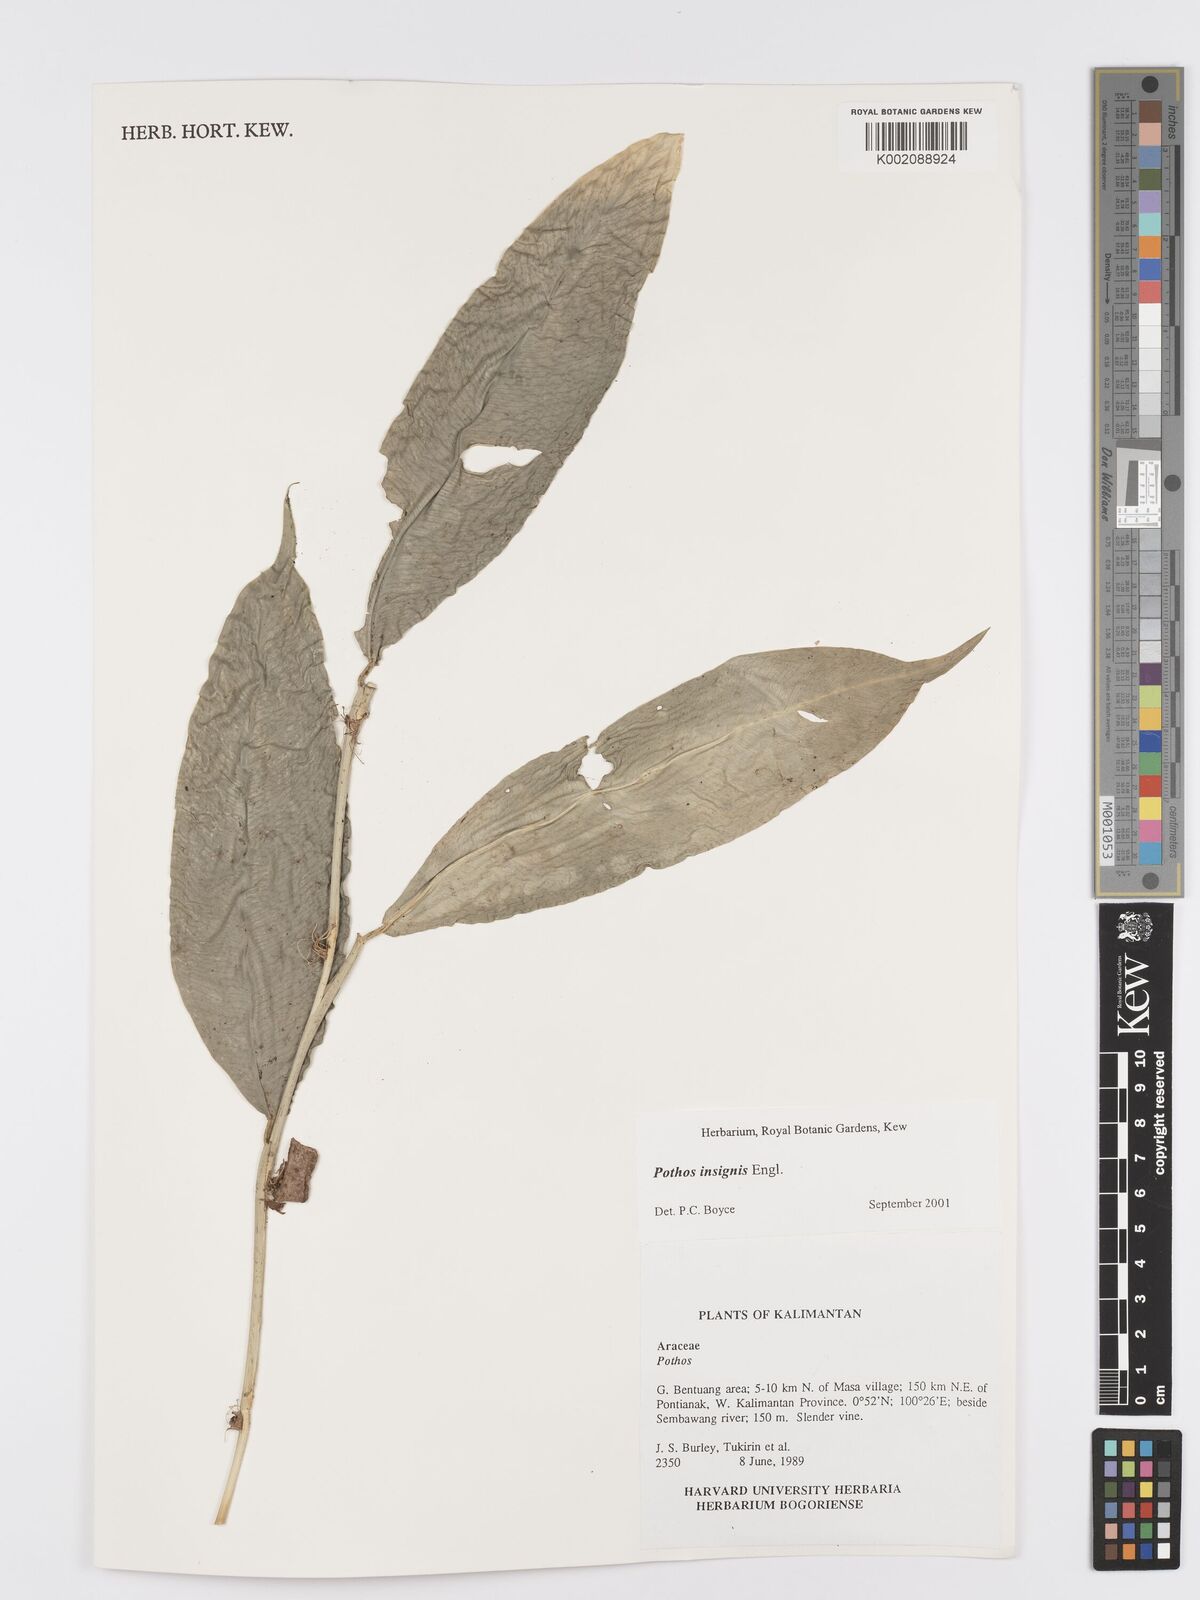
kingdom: Plantae
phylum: Tracheophyta
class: Liliopsida
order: Alismatales
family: Araceae
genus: Pothos
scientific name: Pothos insignis
